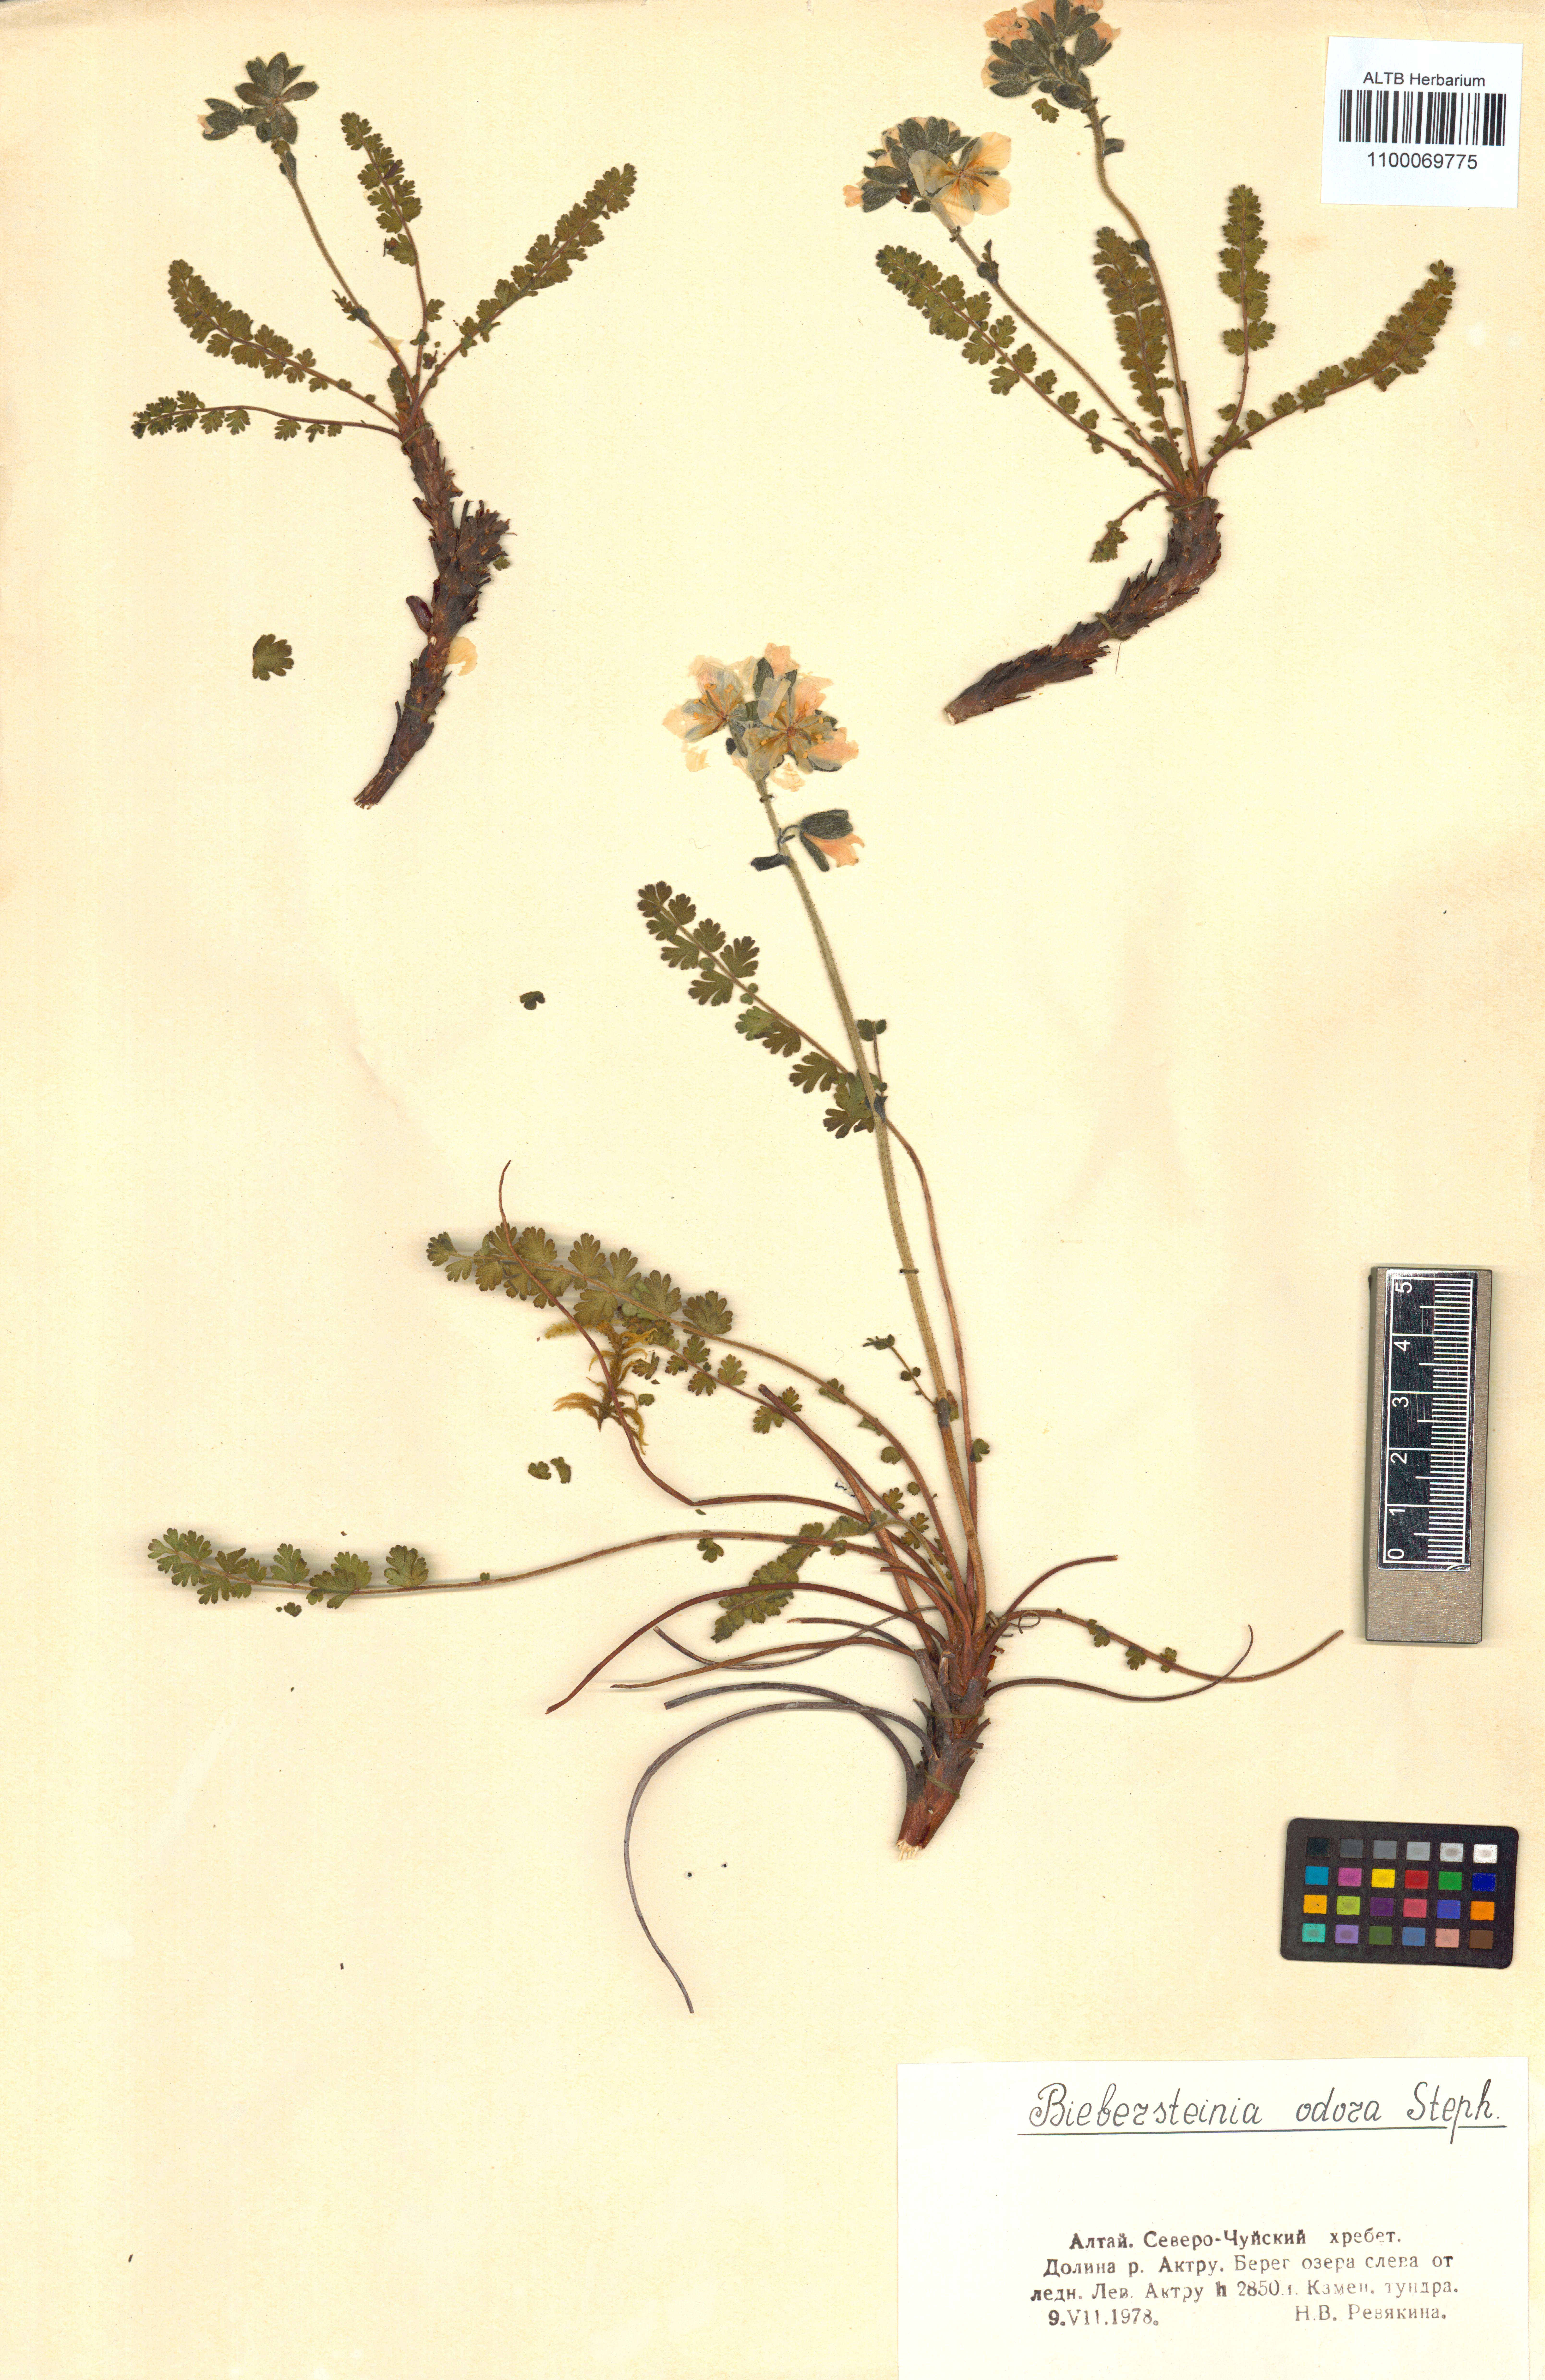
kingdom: Plantae
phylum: Tracheophyta
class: Magnoliopsida
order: Sapindales
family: Biebersteiniaceae
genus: Biebersteinia
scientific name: Biebersteinia odora
